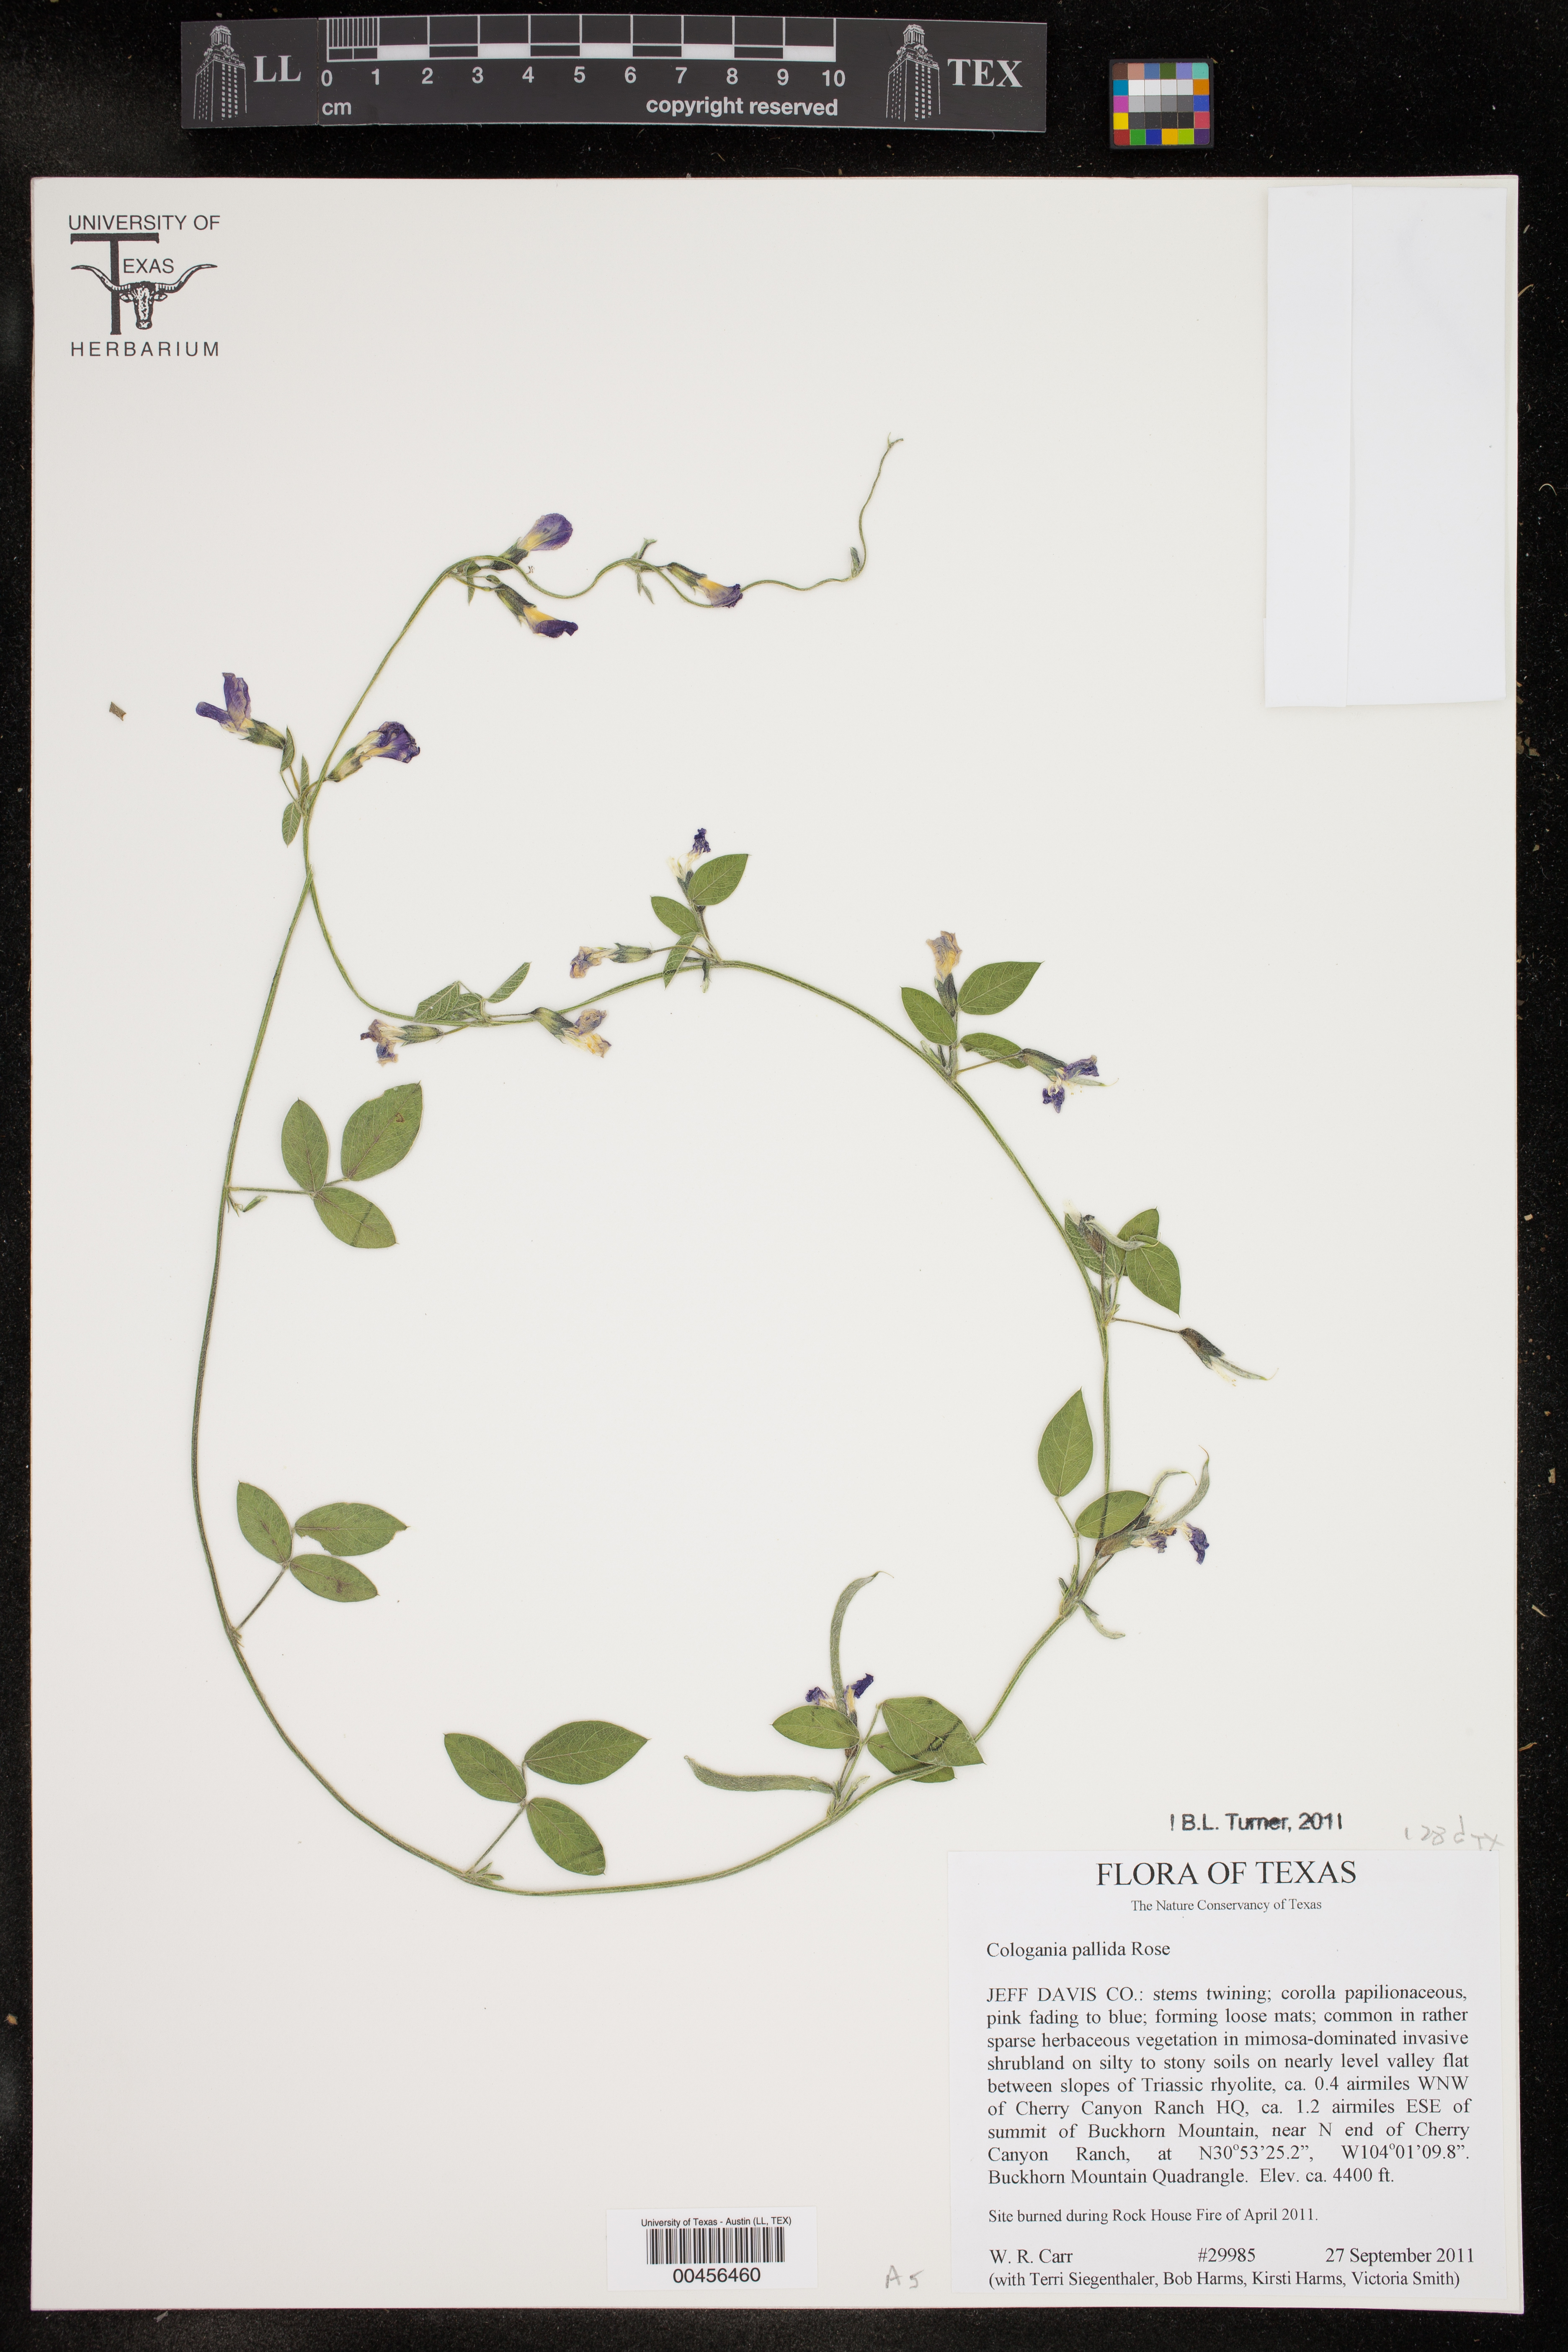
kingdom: Plantae
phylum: Tracheophyta
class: Magnoliopsida
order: Fabales
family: Fabaceae
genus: Cologania
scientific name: Cologania pallida
